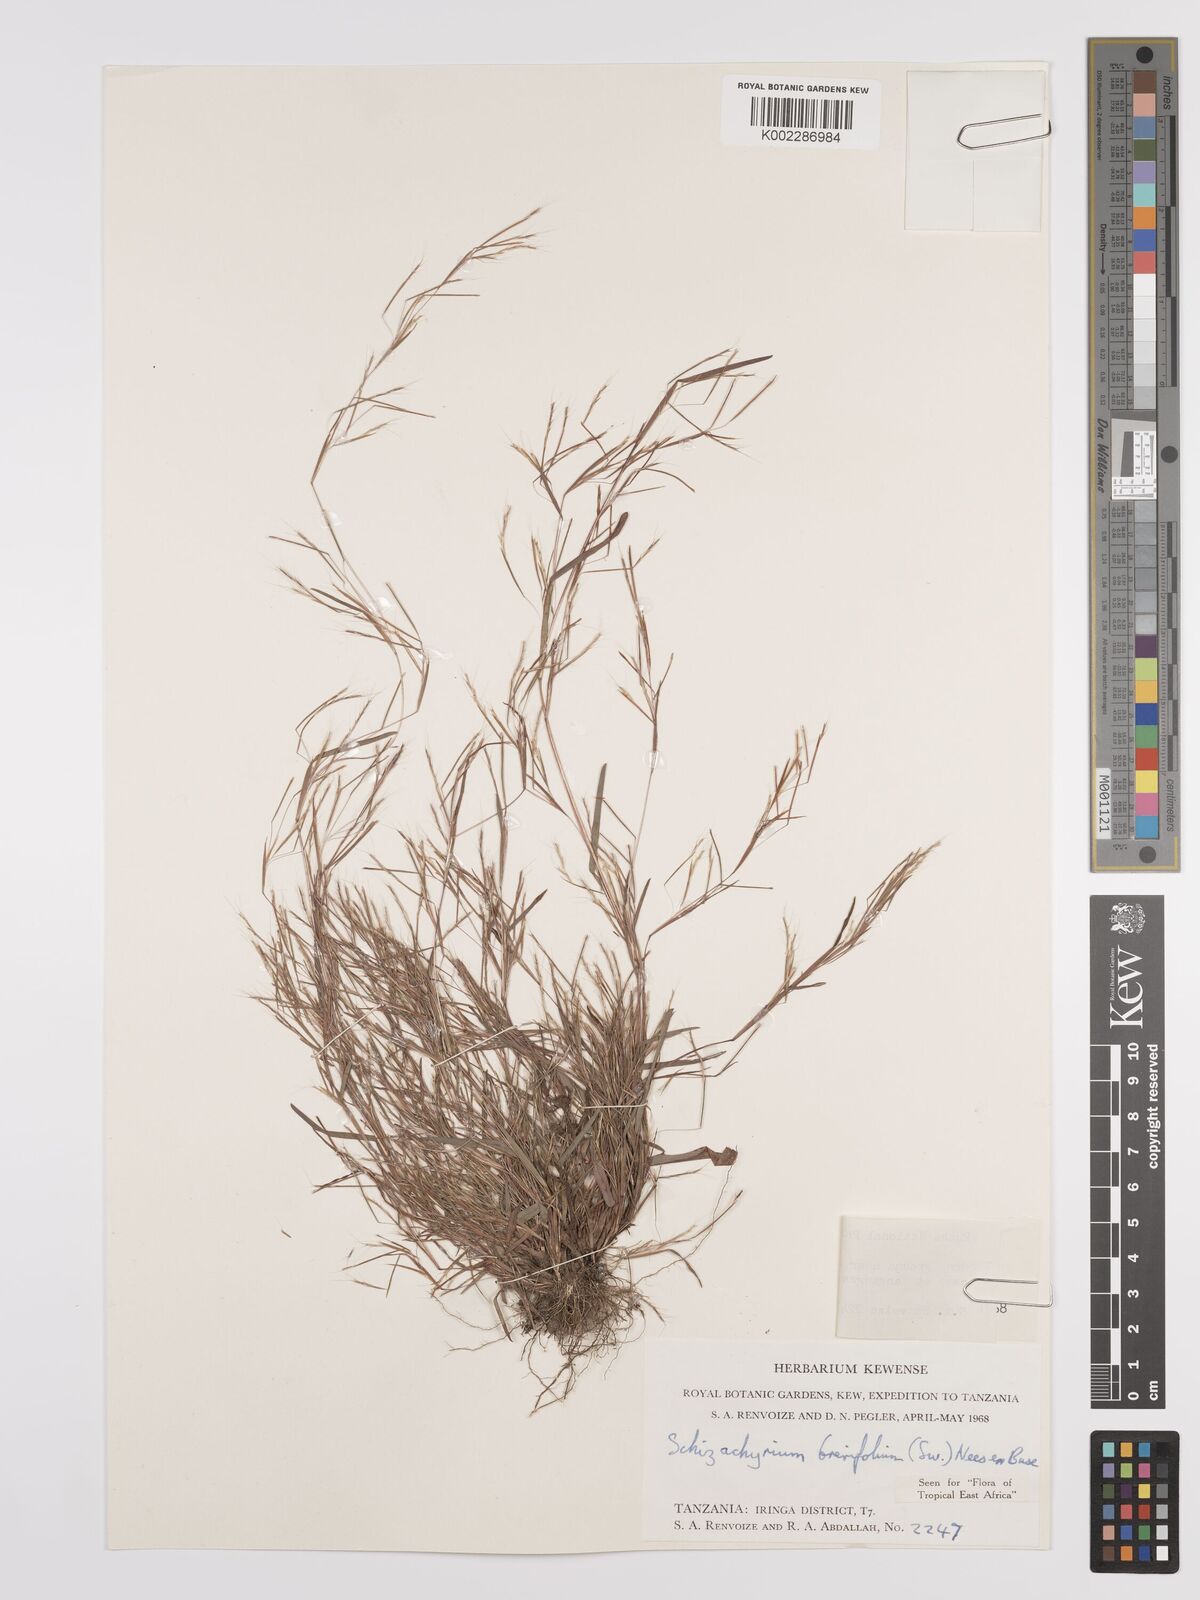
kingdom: Plantae
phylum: Tracheophyta
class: Liliopsida
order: Poales
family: Poaceae
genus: Schizachyrium
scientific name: Schizachyrium brevifolium
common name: Serillo dulce
